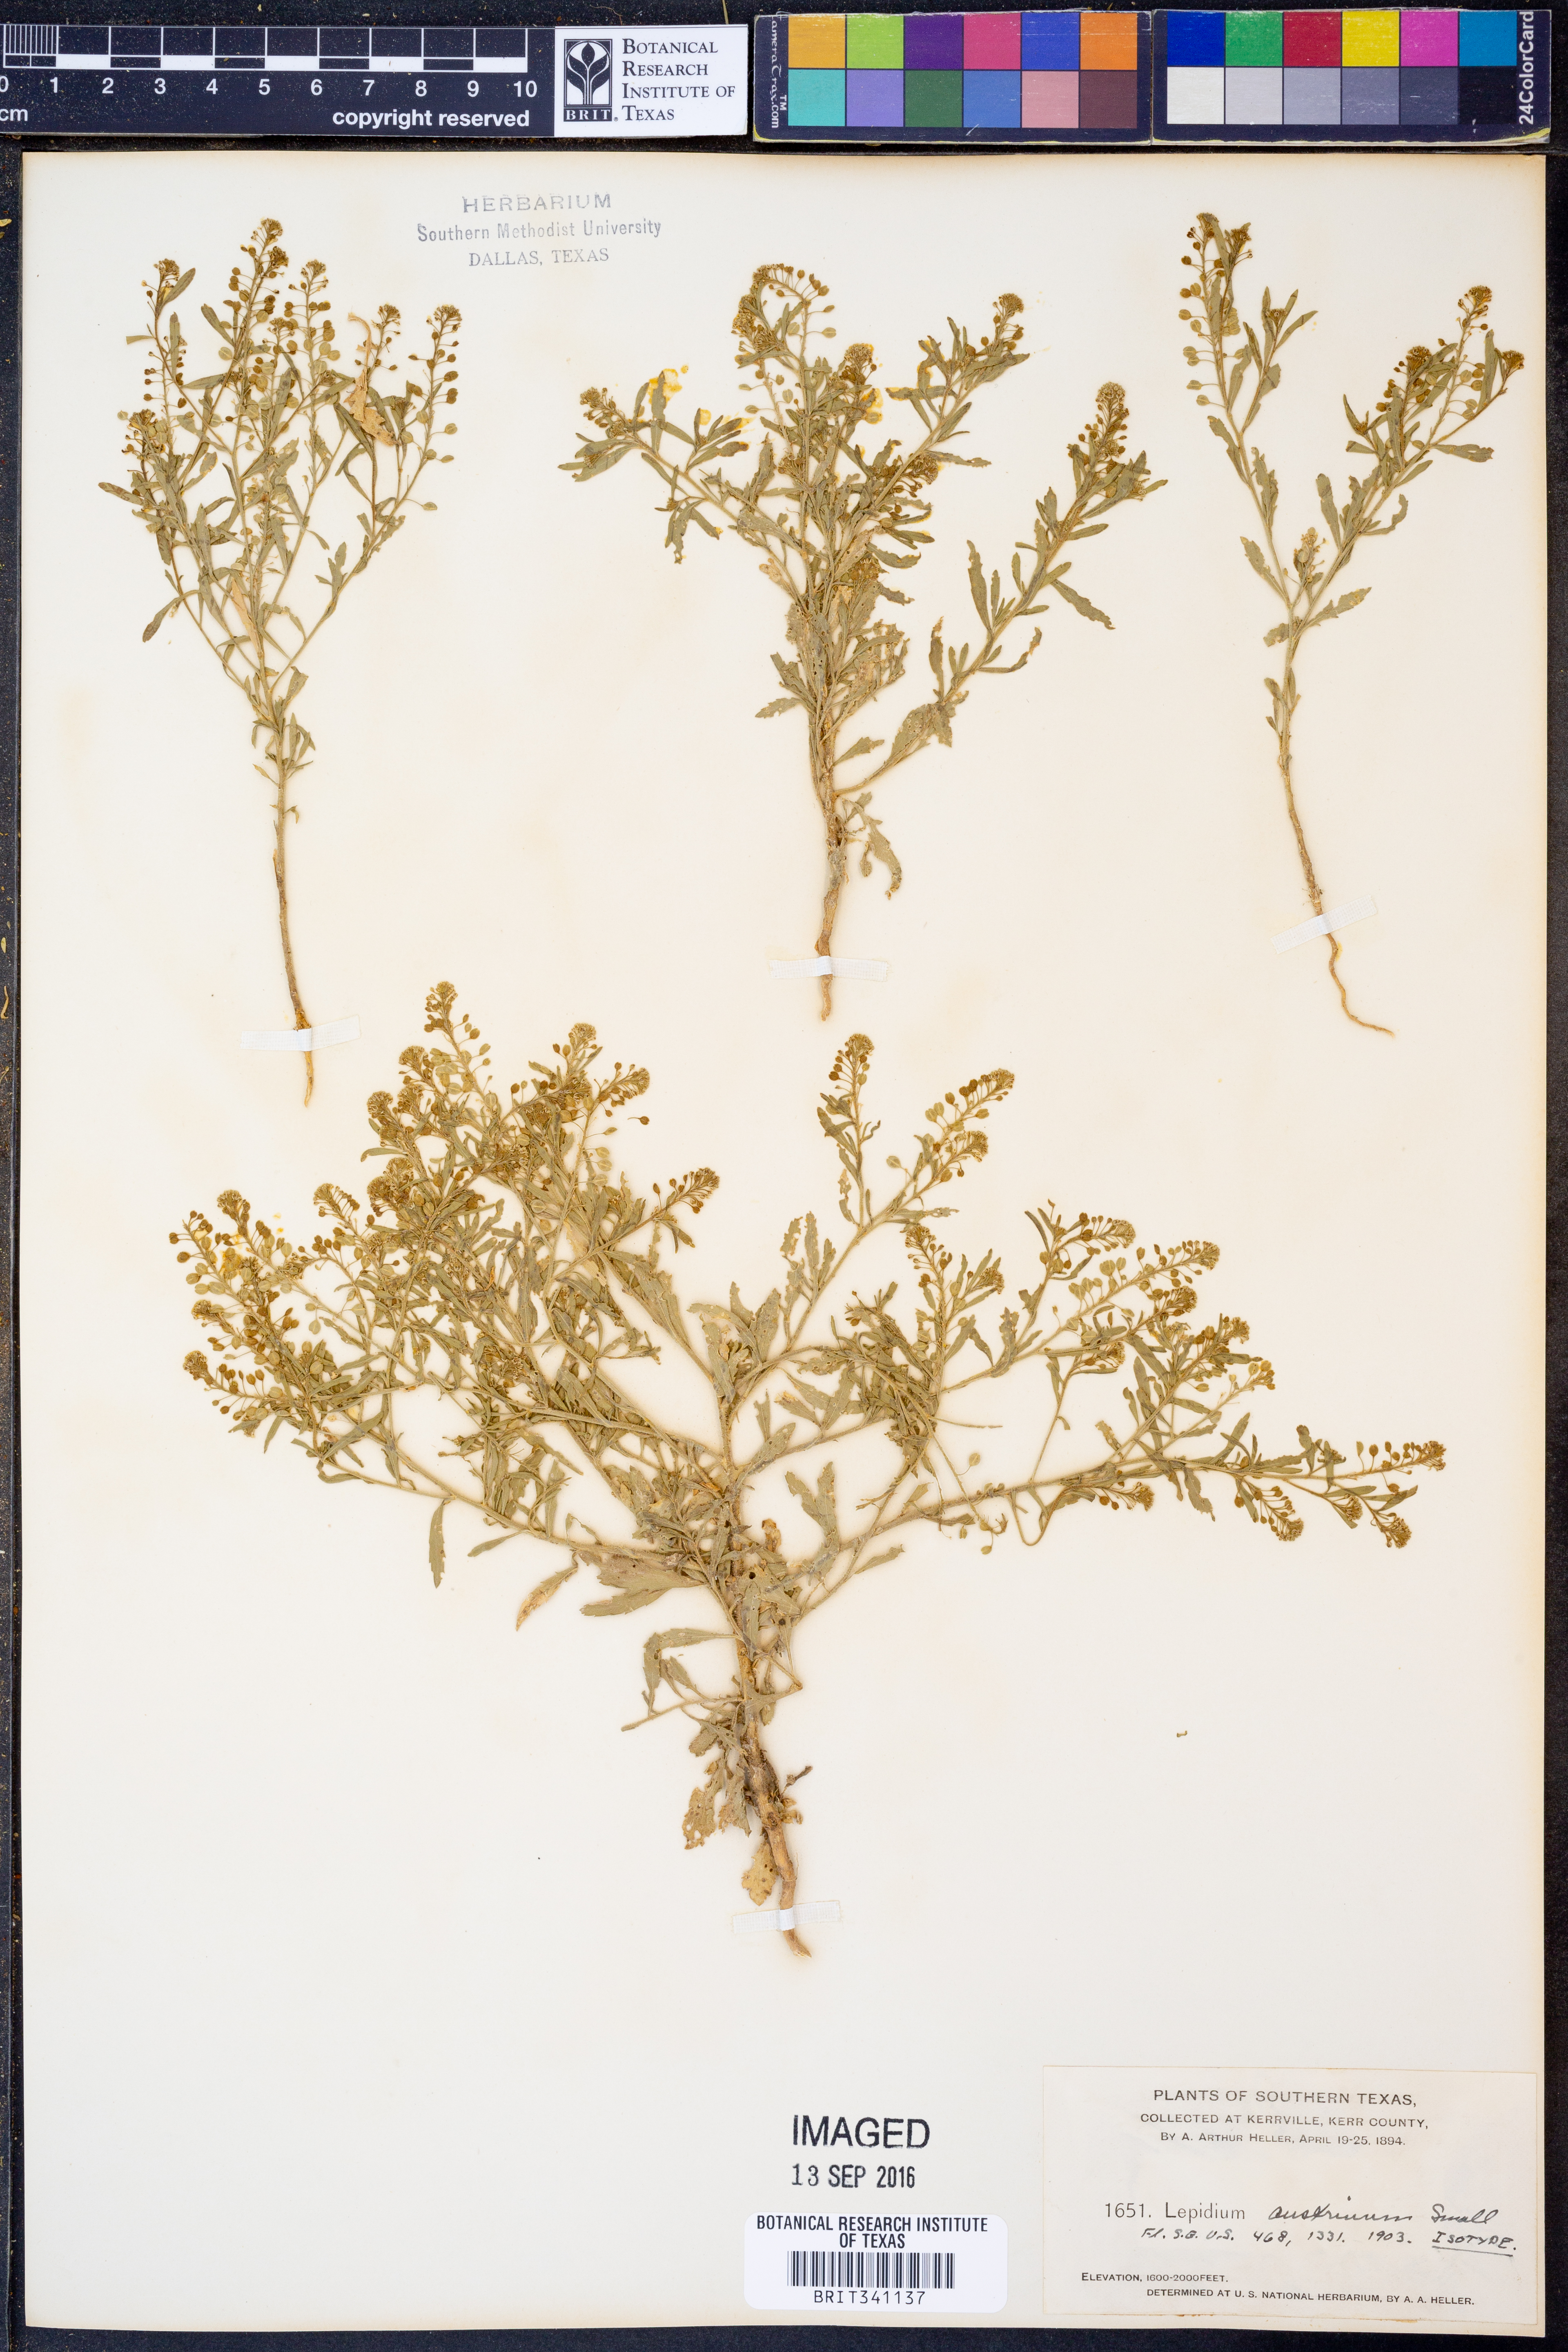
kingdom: Plantae
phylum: Tracheophyta
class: Magnoliopsida
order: Brassicales
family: Brassicaceae
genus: Lepidium
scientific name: Lepidium austrinum
